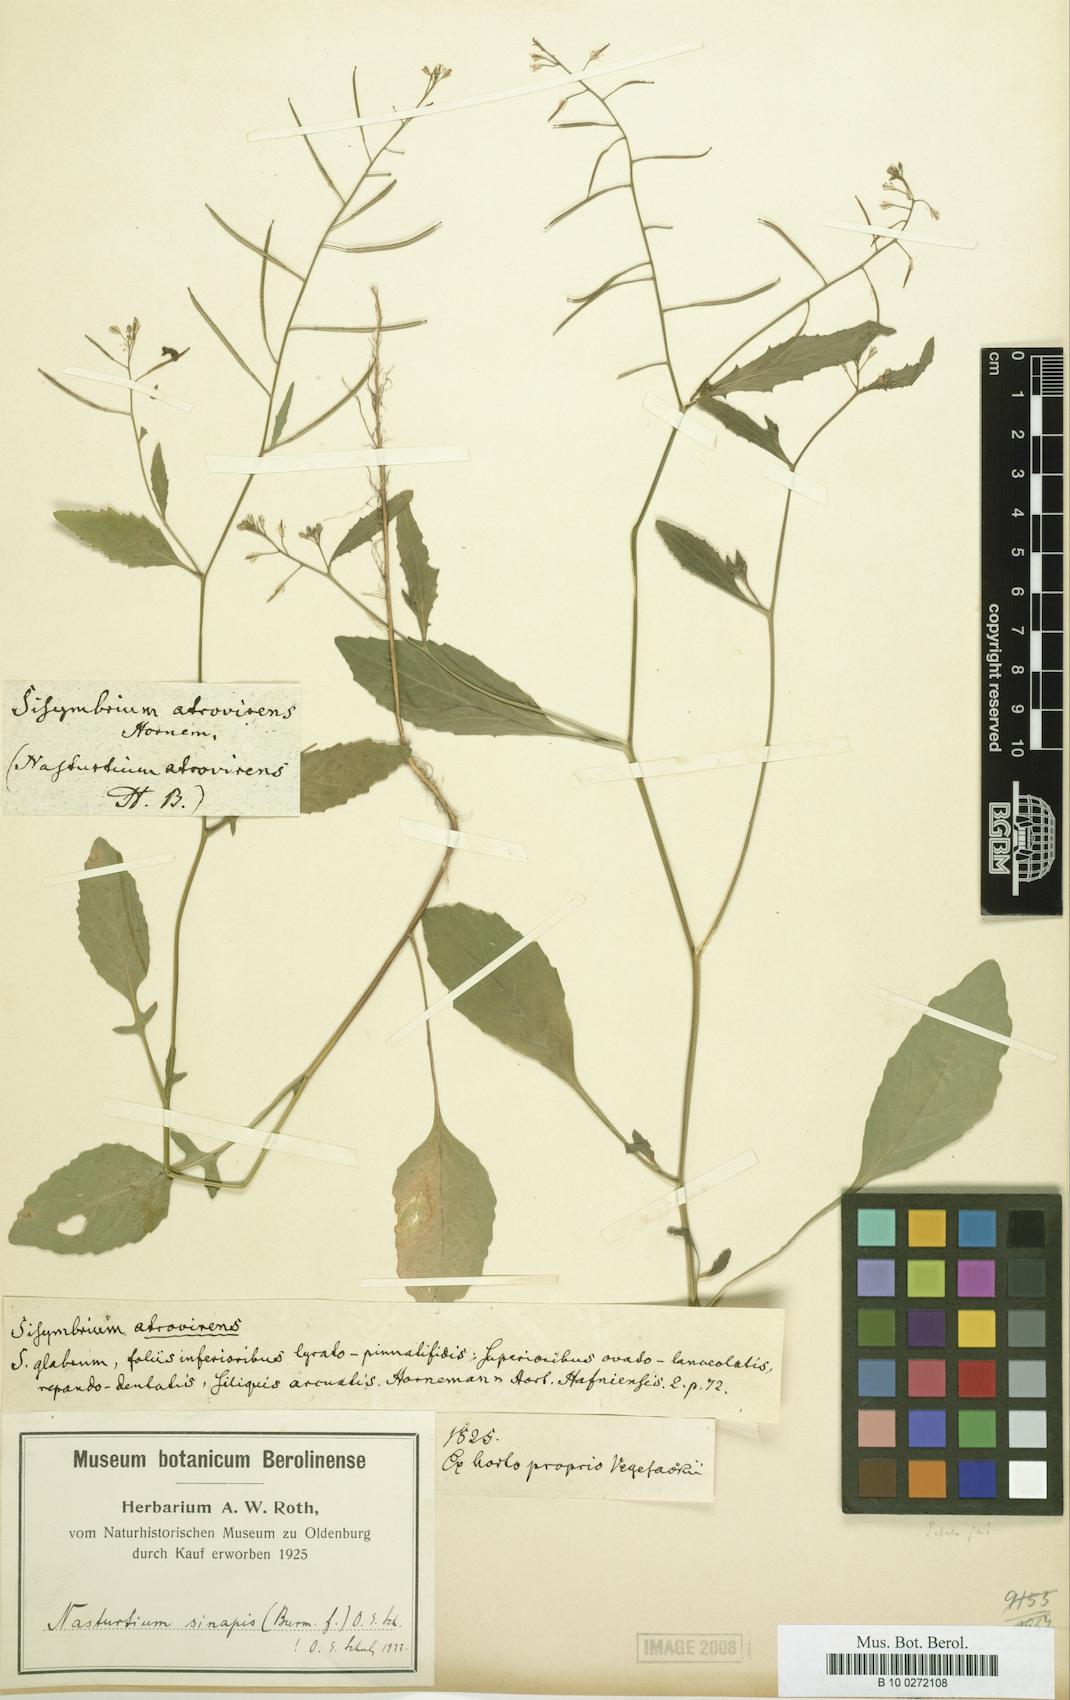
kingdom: Plantae
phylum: Tracheophyta
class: Magnoliopsida
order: Brassicales
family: Brassicaceae
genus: Rorippa
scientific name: Rorippa indica
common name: Variableleaf yellowcress
